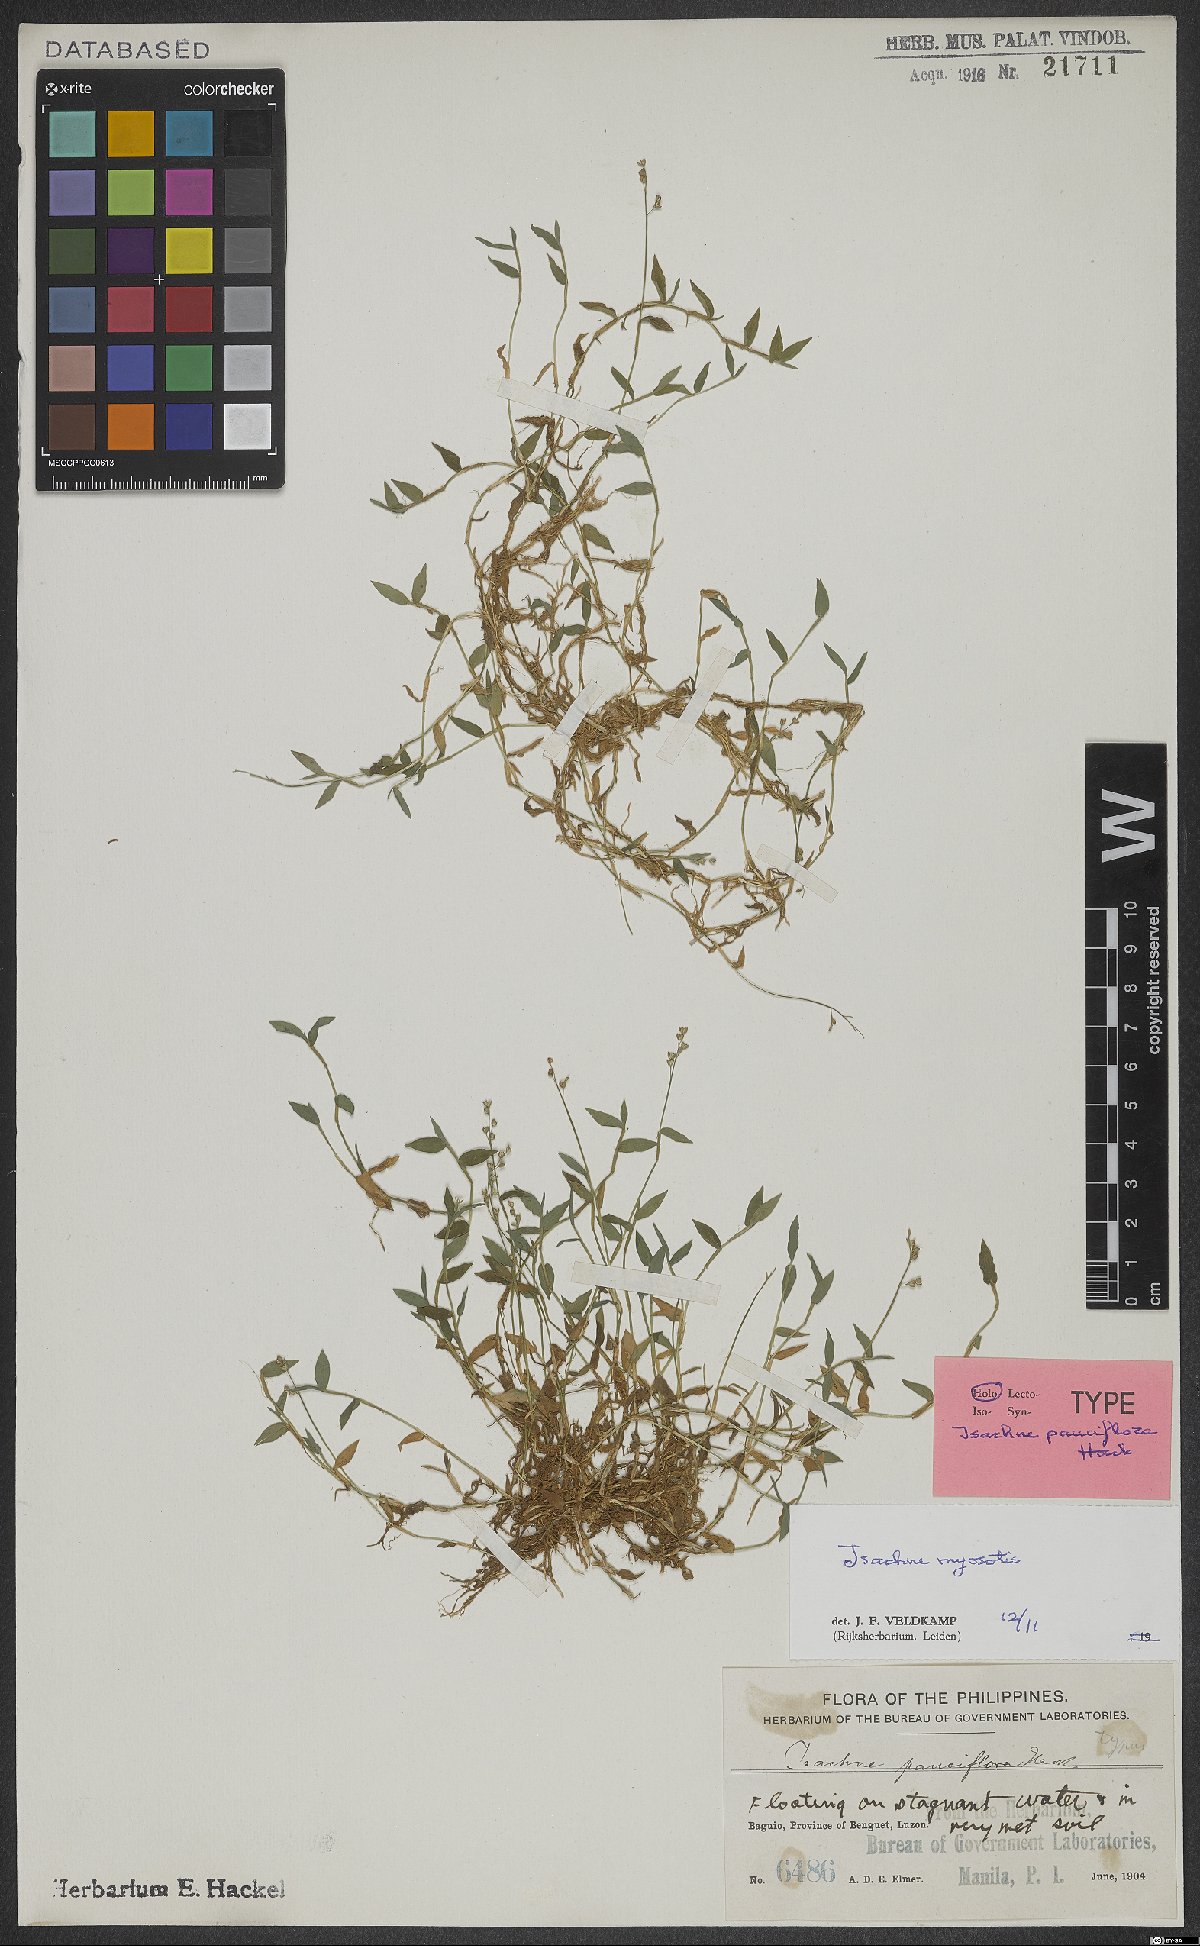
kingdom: Plantae
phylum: Tracheophyta
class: Liliopsida
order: Poales
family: Poaceae
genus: Isachne
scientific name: Isachne myosotis
